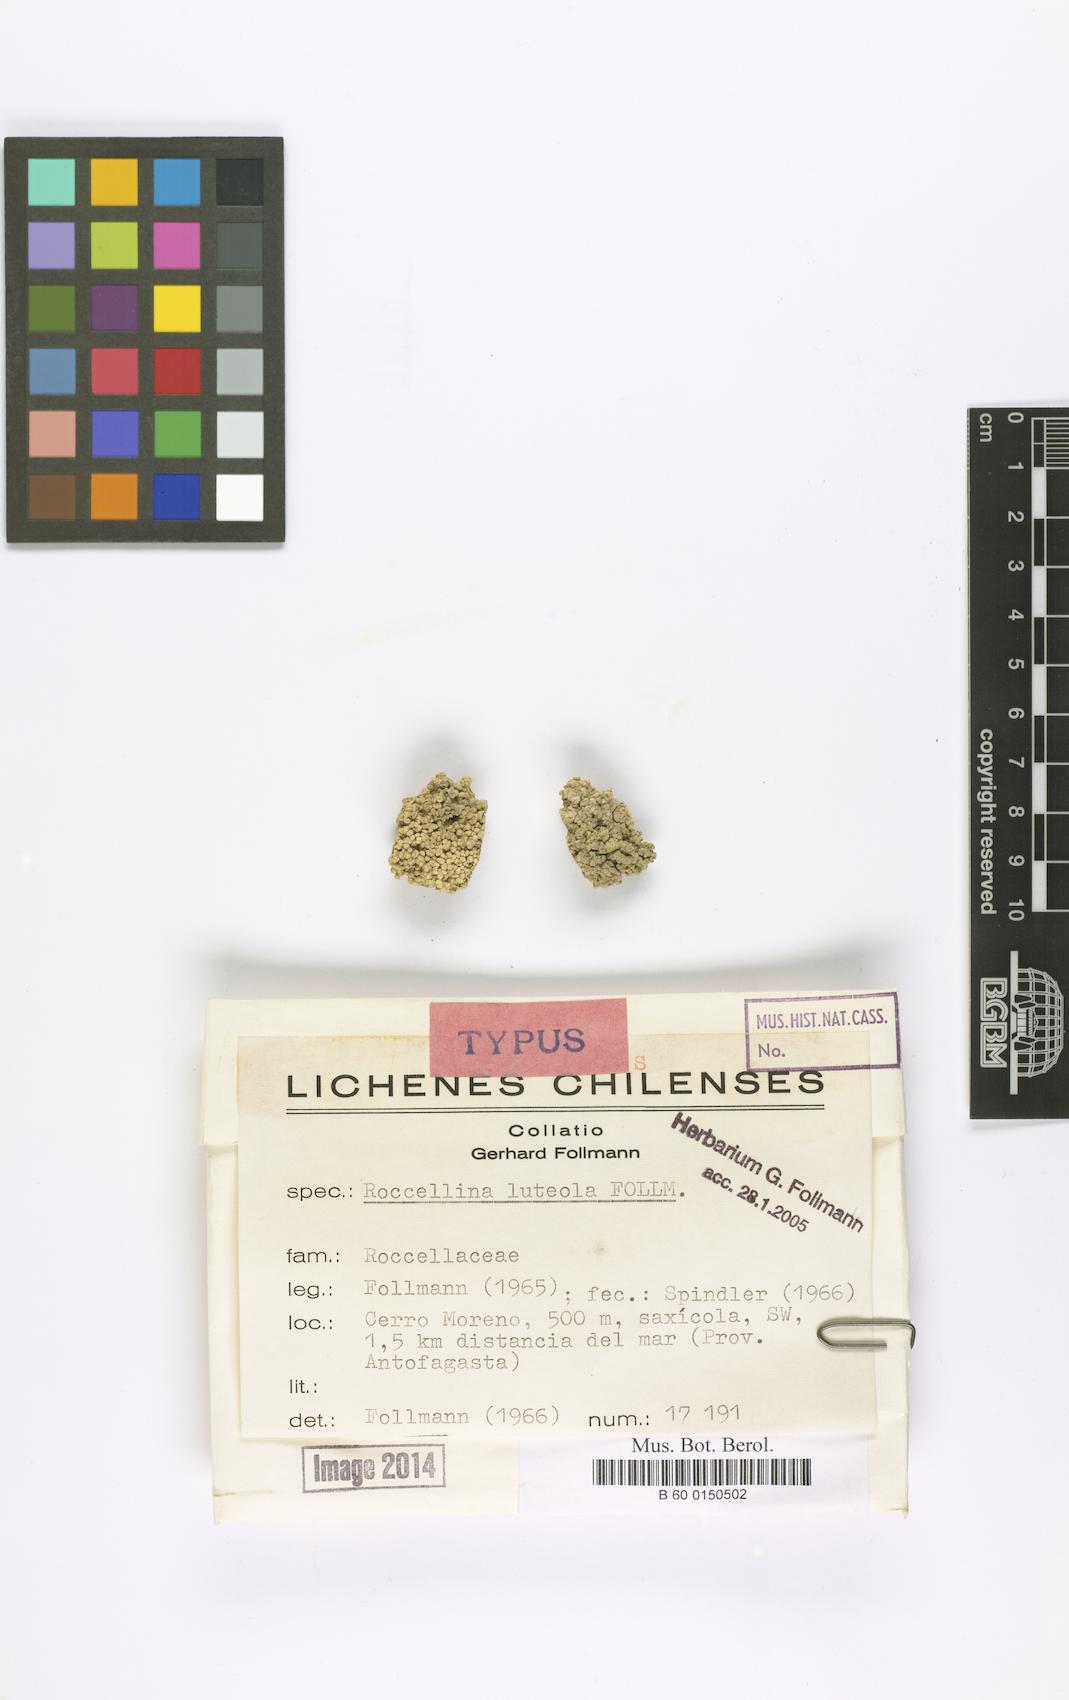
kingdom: Fungi
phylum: Ascomycota
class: Arthoniomycetes
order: Arthoniales
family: Roccellaceae
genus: Lecanactis
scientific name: Lecanactis luteola
